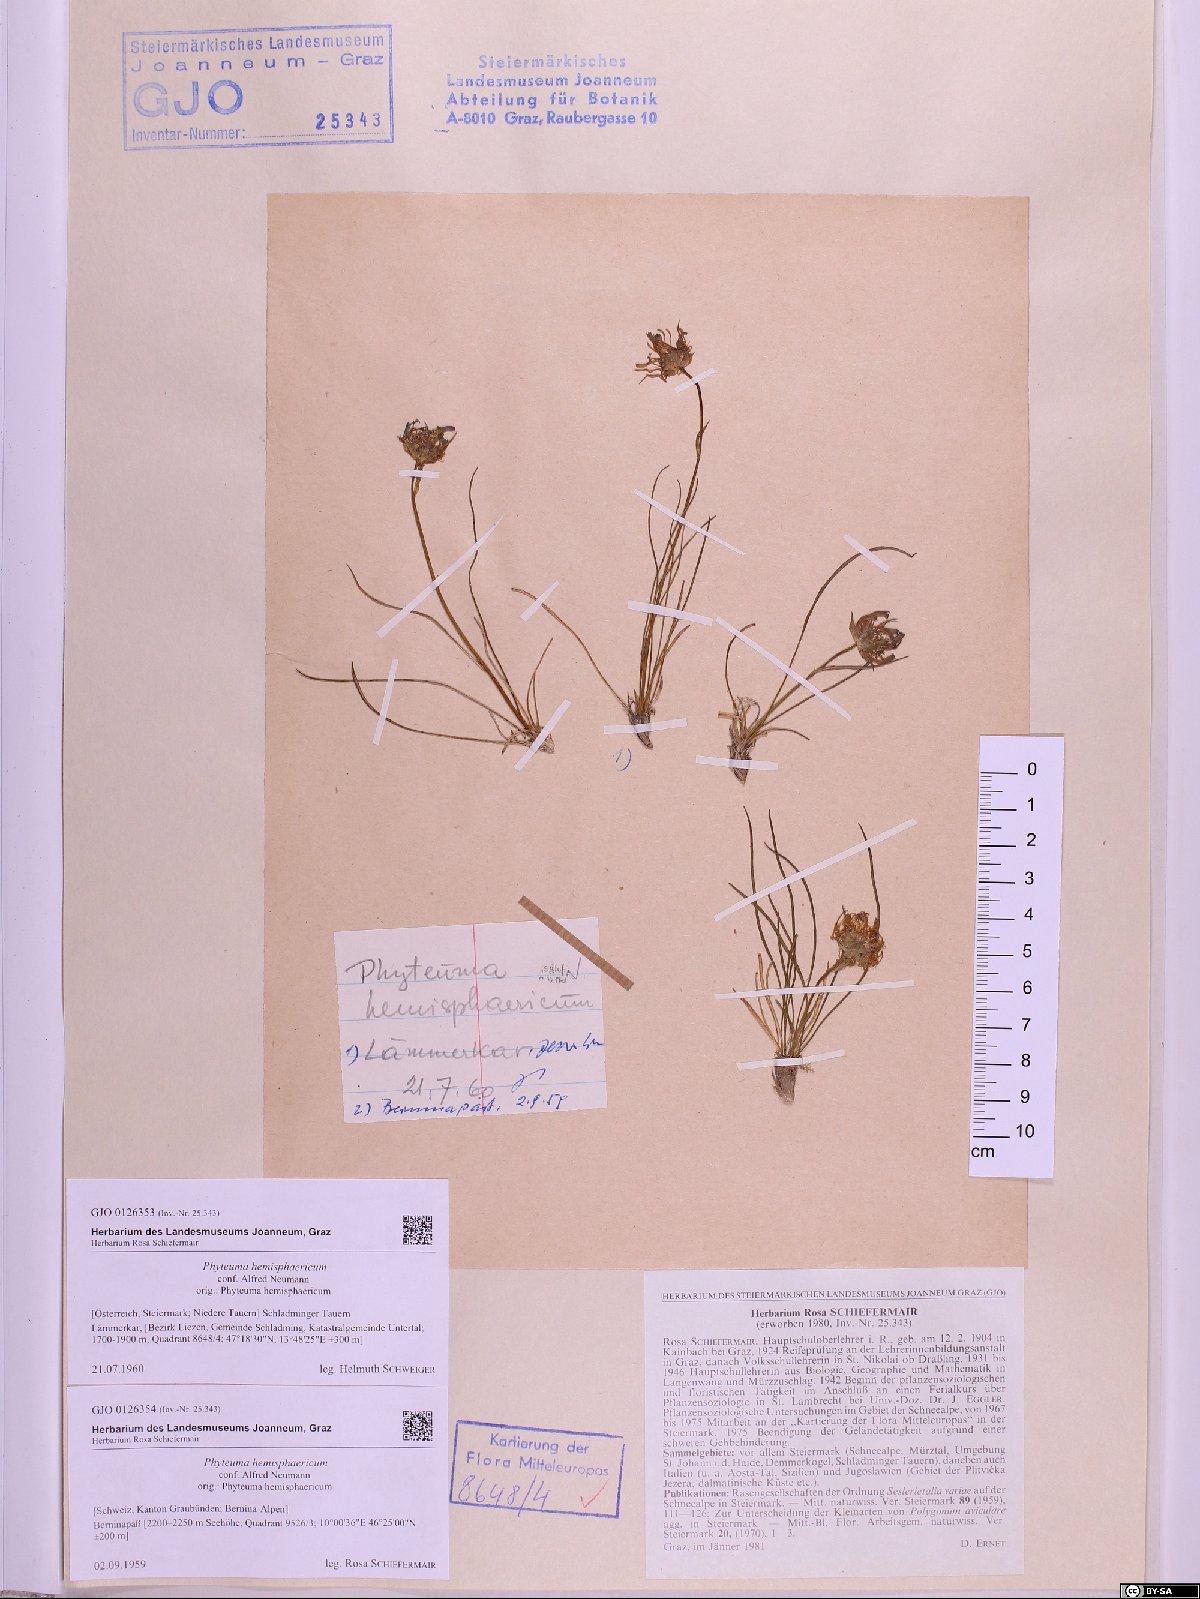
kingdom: Plantae
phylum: Tracheophyta
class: Magnoliopsida
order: Asterales
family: Campanulaceae
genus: Phyteuma
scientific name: Phyteuma hemisphaericum
